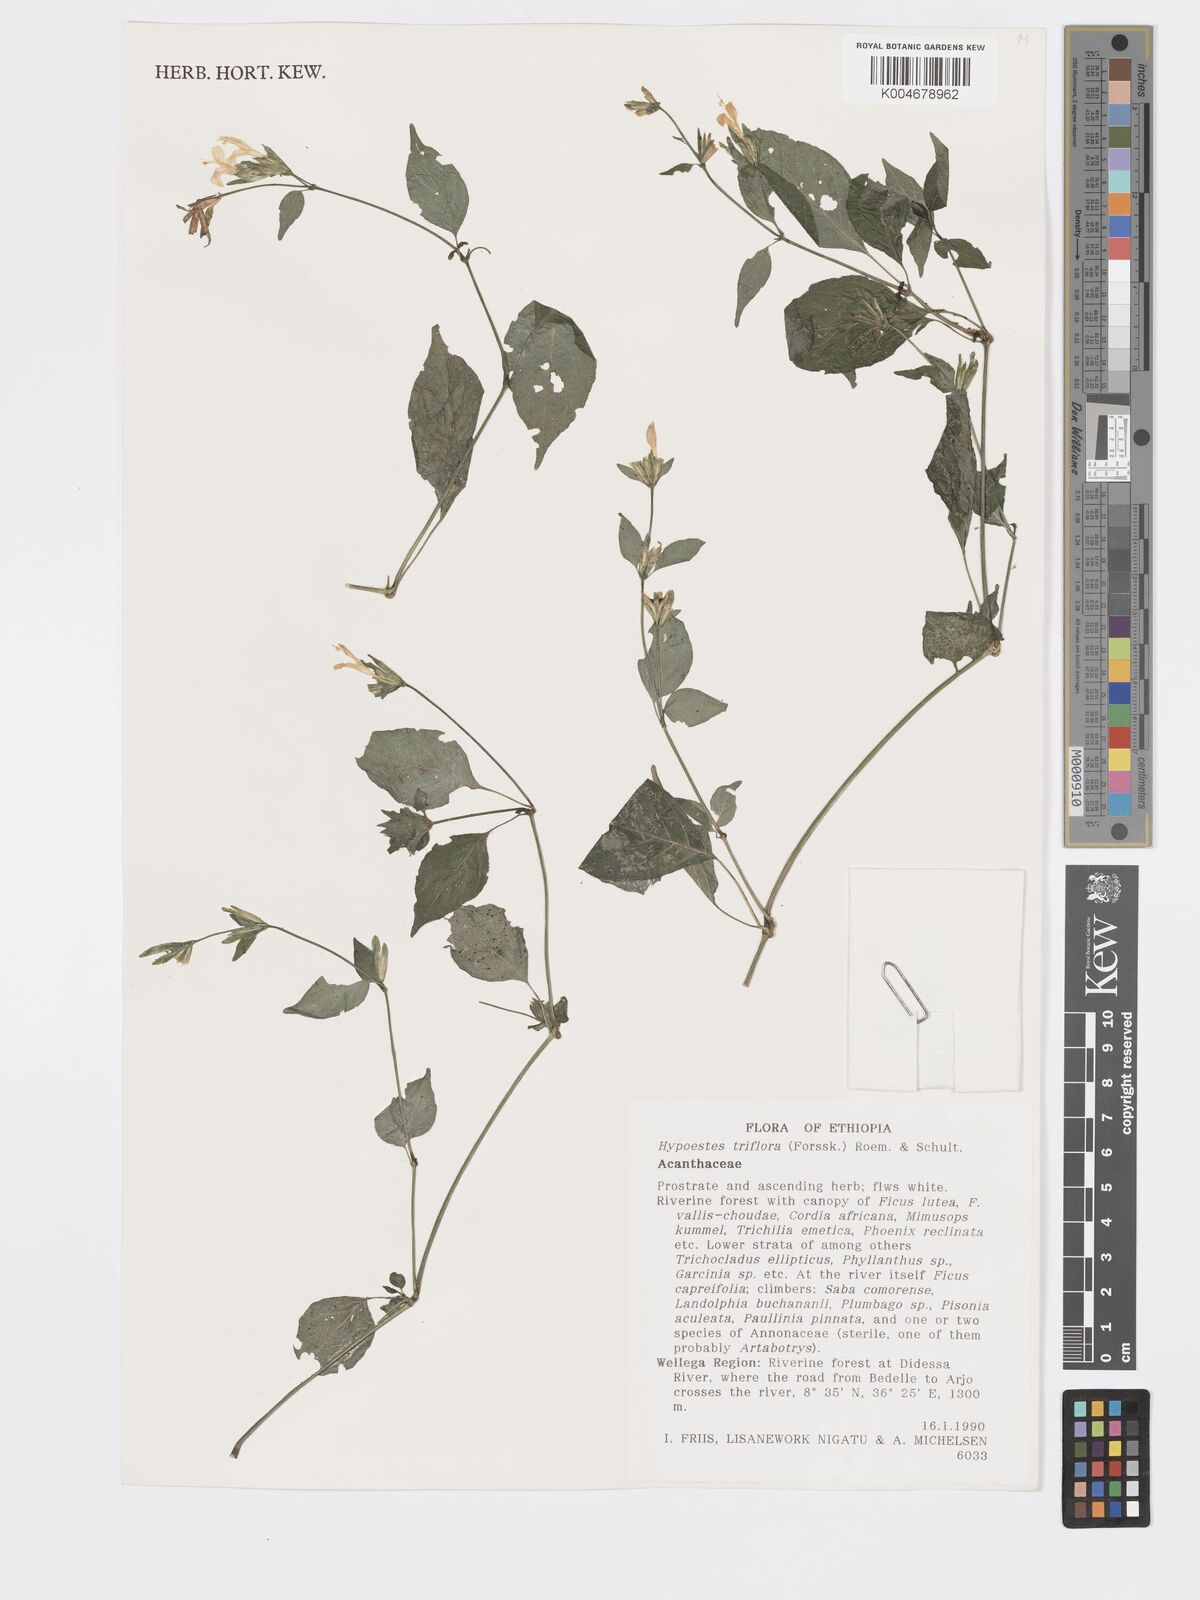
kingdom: Plantae
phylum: Tracheophyta
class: Magnoliopsida
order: Lamiales
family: Acanthaceae
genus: Hypoestes
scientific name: Hypoestes triflora
